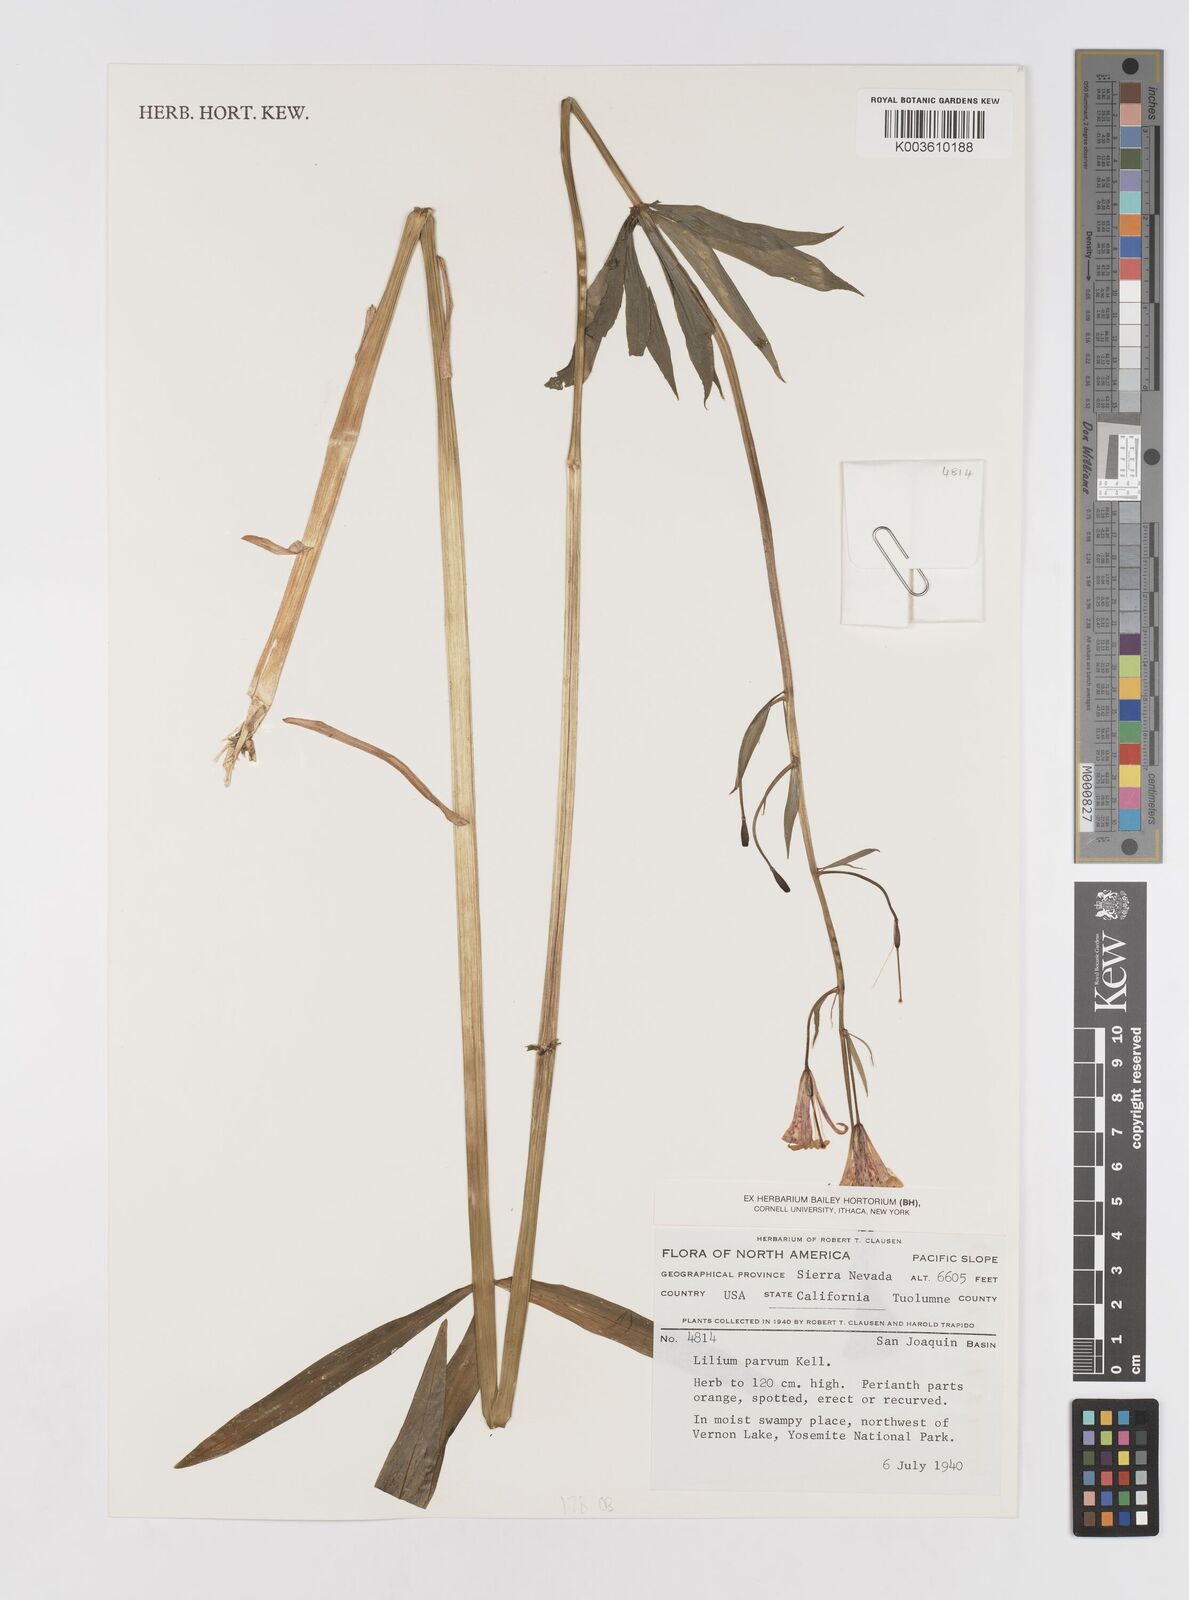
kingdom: Plantae
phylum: Tracheophyta
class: Liliopsida
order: Liliales
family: Liliaceae
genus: Lilium
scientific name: Lilium parvum
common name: Alpine lily
